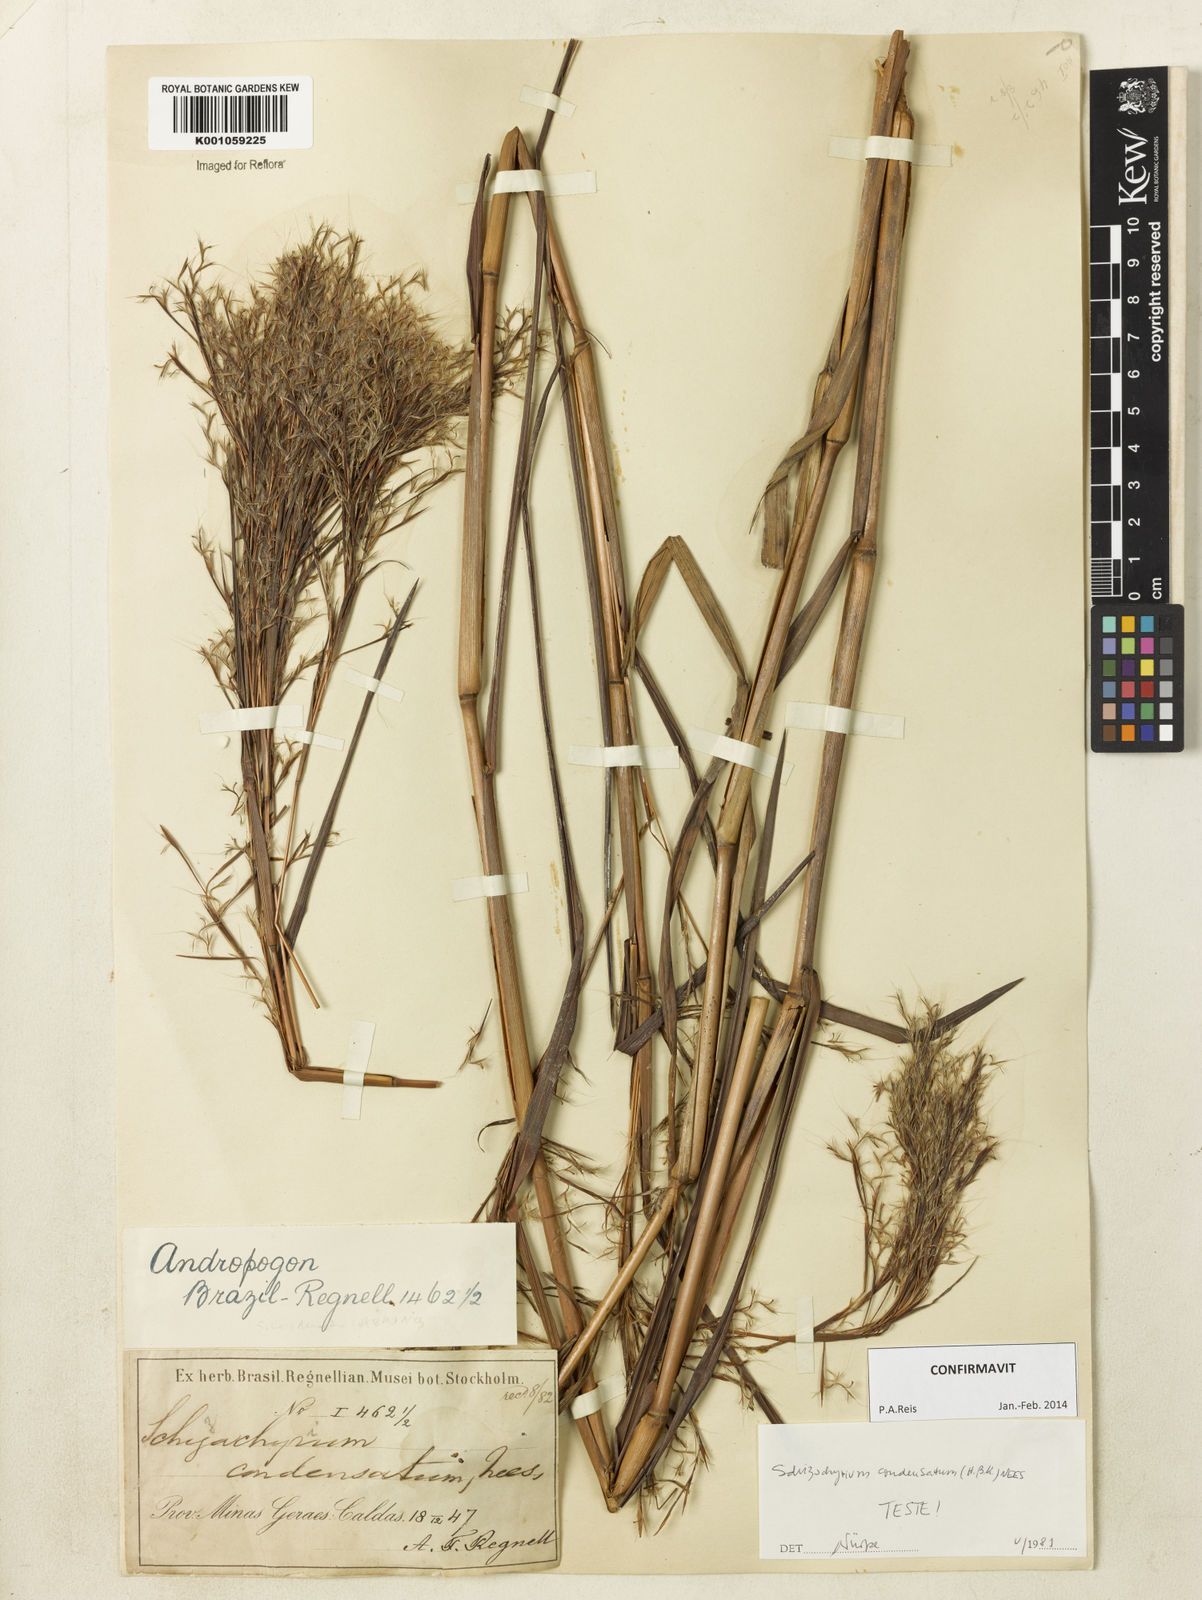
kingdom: Plantae
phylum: Tracheophyta
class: Liliopsida
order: Poales
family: Poaceae
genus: Schizachyrium
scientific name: Schizachyrium glaziovii
